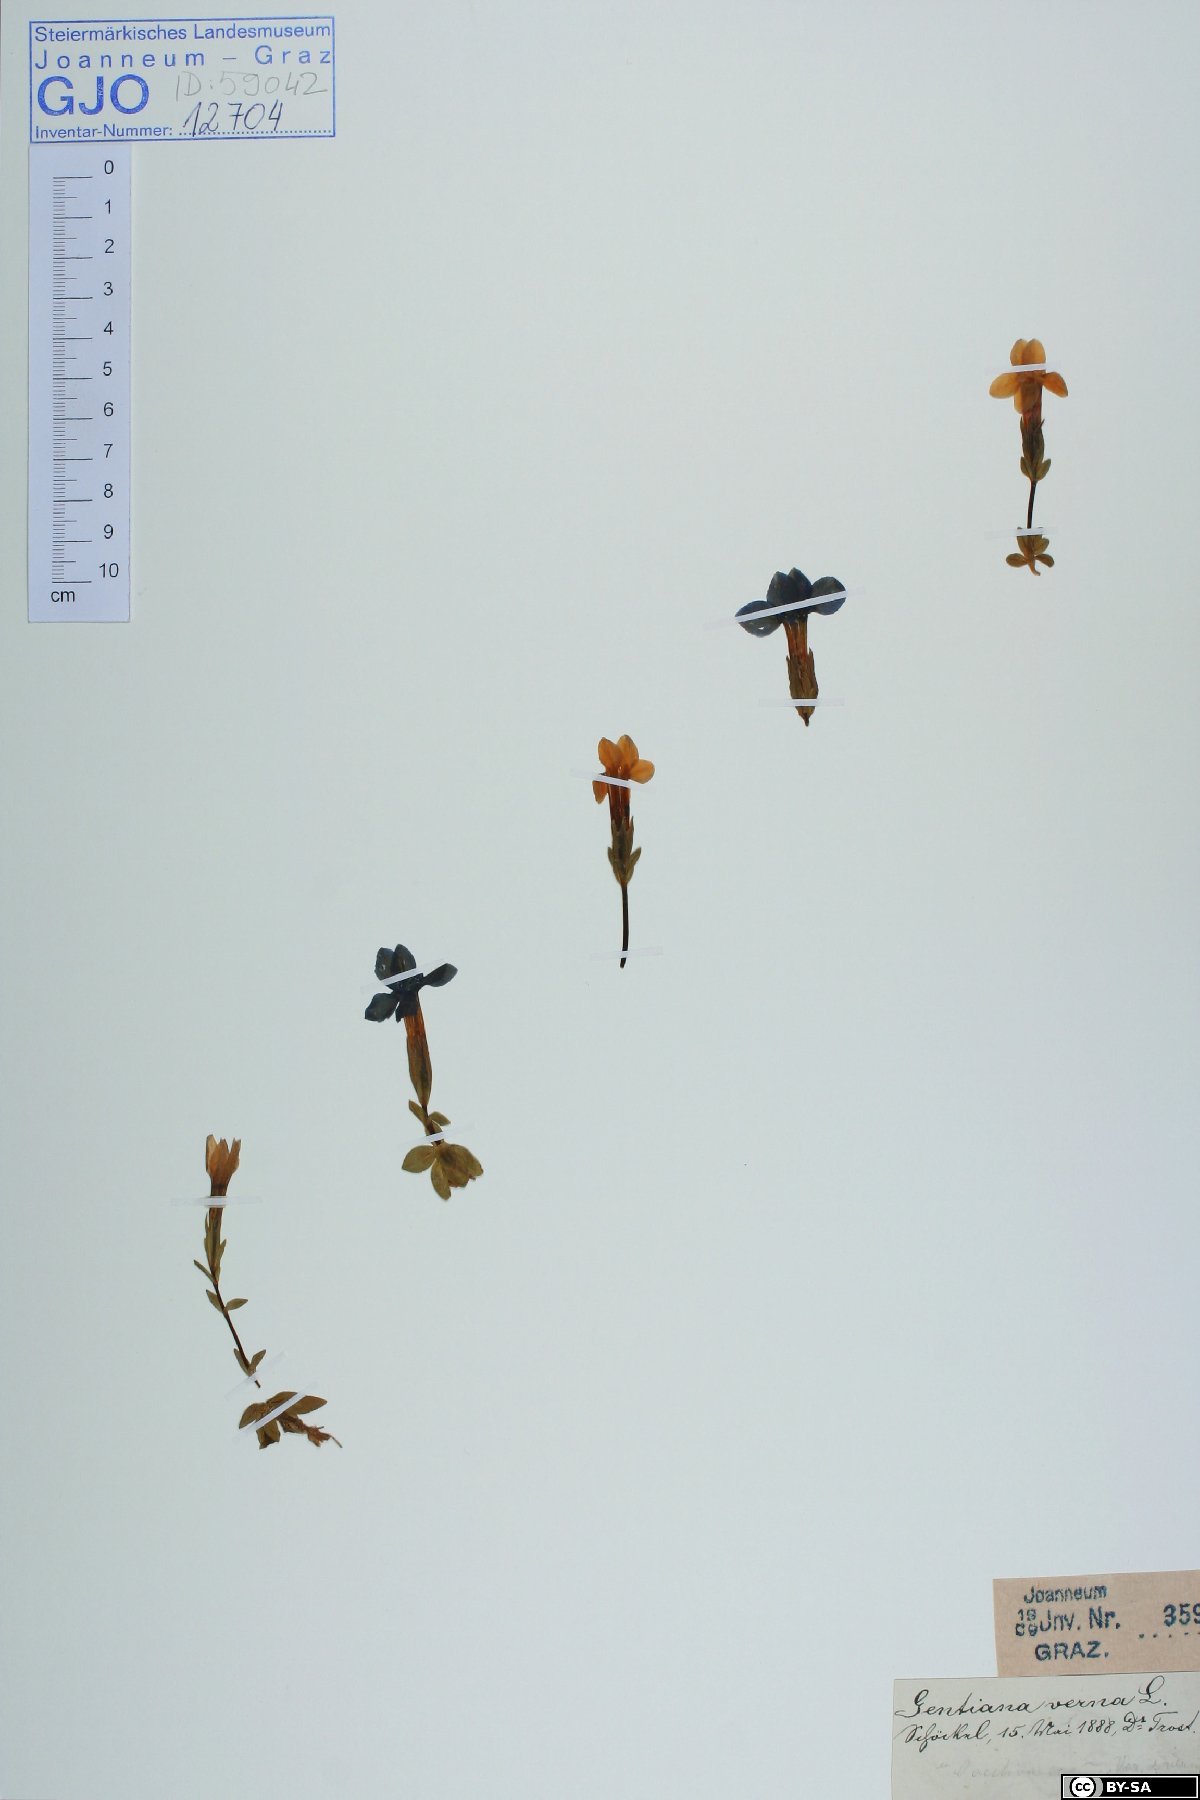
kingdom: Plantae
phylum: Tracheophyta
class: Magnoliopsida
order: Gentianales
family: Gentianaceae
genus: Gentiana
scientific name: Gentiana verna
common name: Spring gentian
